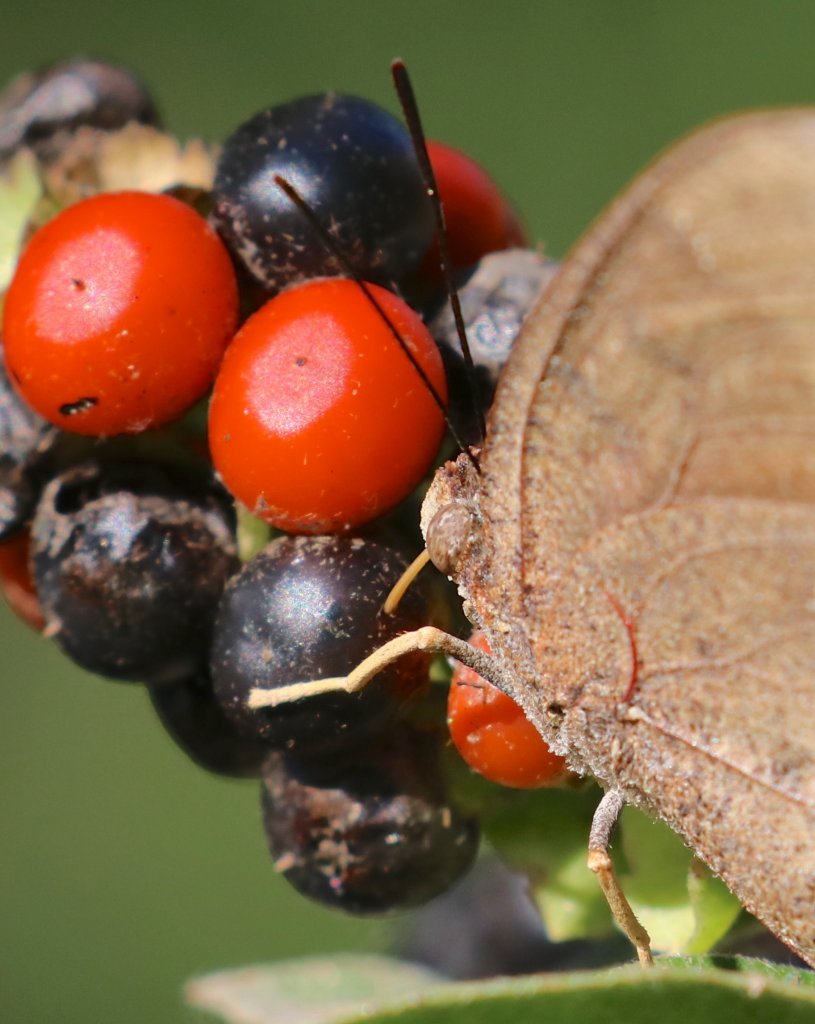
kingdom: Animalia
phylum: Arthropoda
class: Insecta
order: Lepidoptera
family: Nymphalidae
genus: Anaea
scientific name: Anaea aidea
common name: Tropical Leafwing
